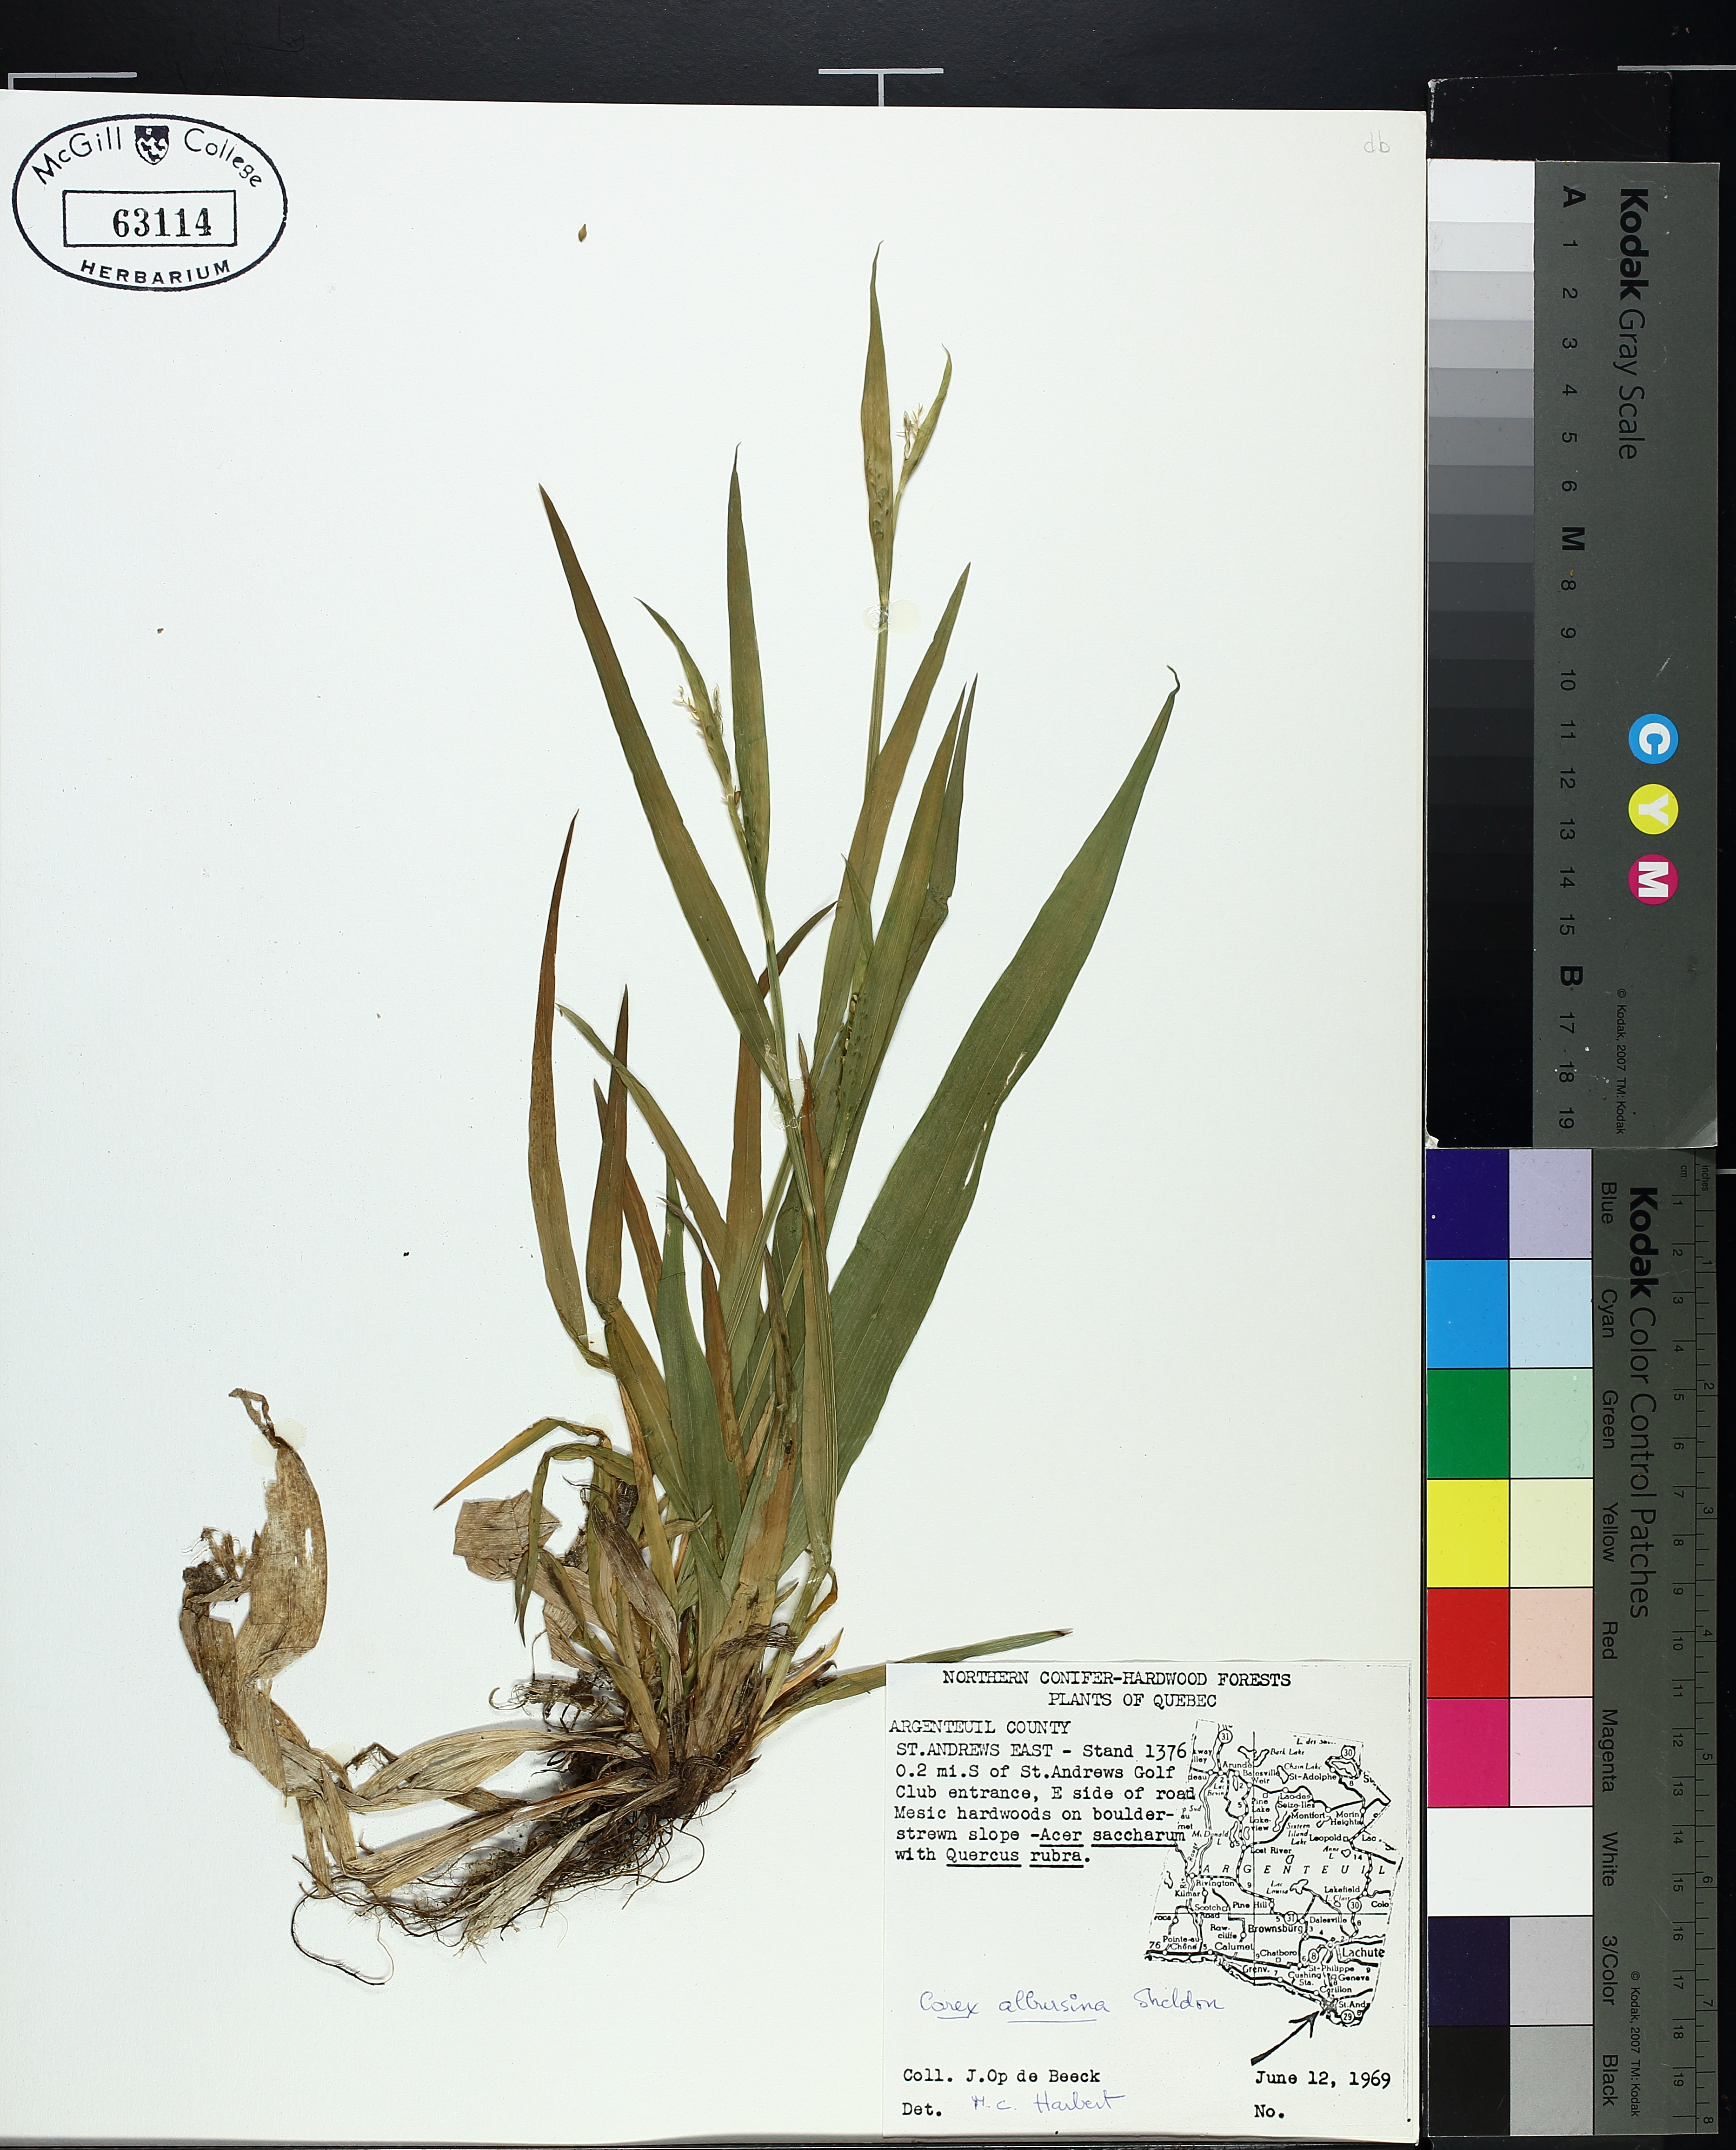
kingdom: Plantae
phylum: Tracheophyta
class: Liliopsida
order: Poales
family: Cyperaceae
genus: Carex
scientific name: Carex albursina
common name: Blunt-scale wood sedge
